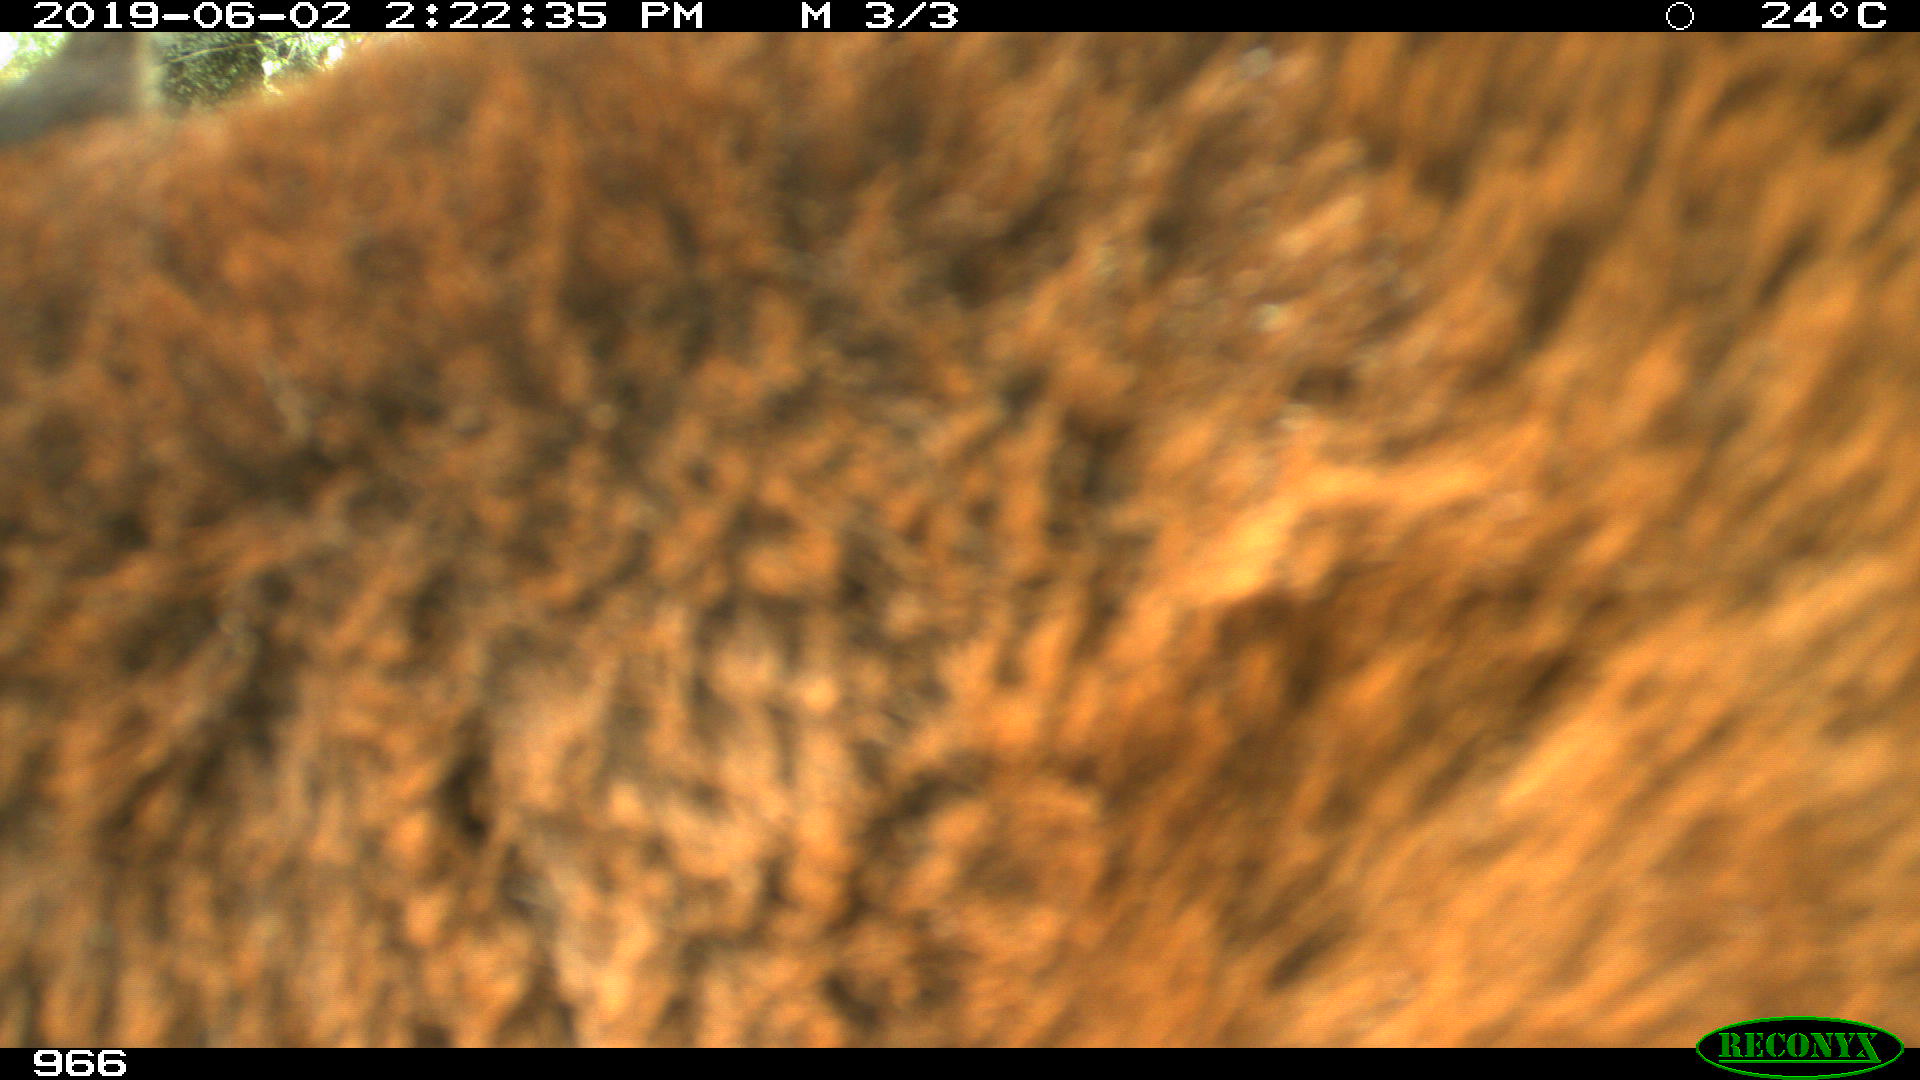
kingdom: Animalia
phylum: Chordata
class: Mammalia
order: Perissodactyla
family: Equidae
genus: Equus
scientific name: Equus caballus
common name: Horse
